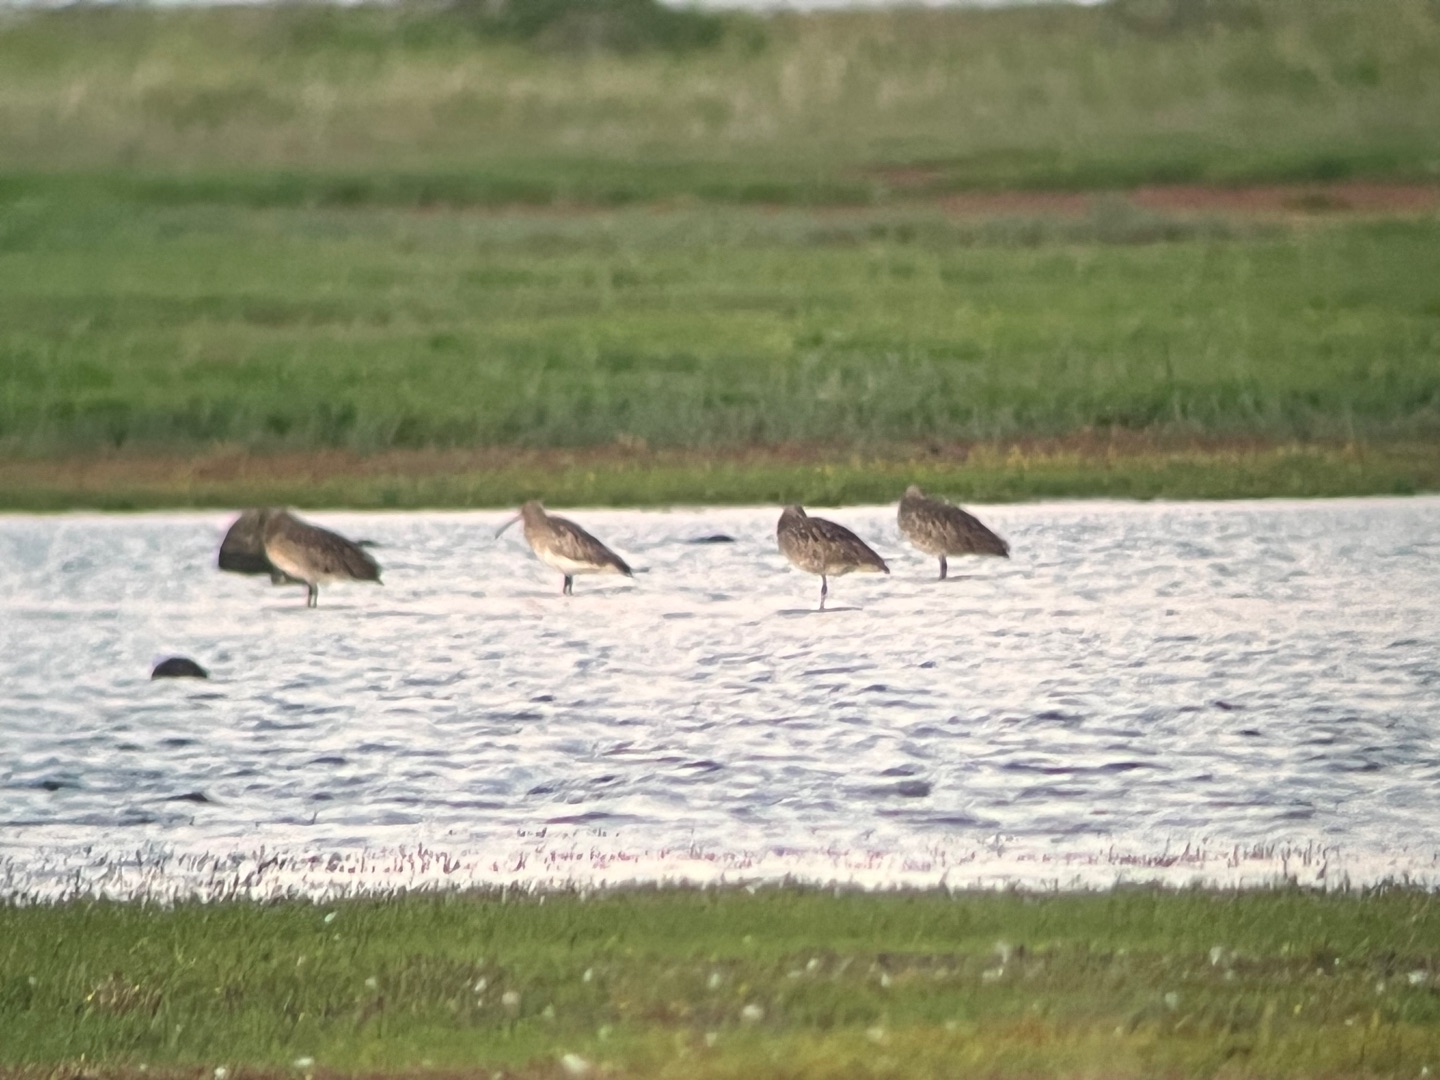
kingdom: Animalia
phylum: Chordata
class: Aves
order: Charadriiformes
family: Scolopacidae
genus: Numenius
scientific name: Numenius arquata
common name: Storspove
